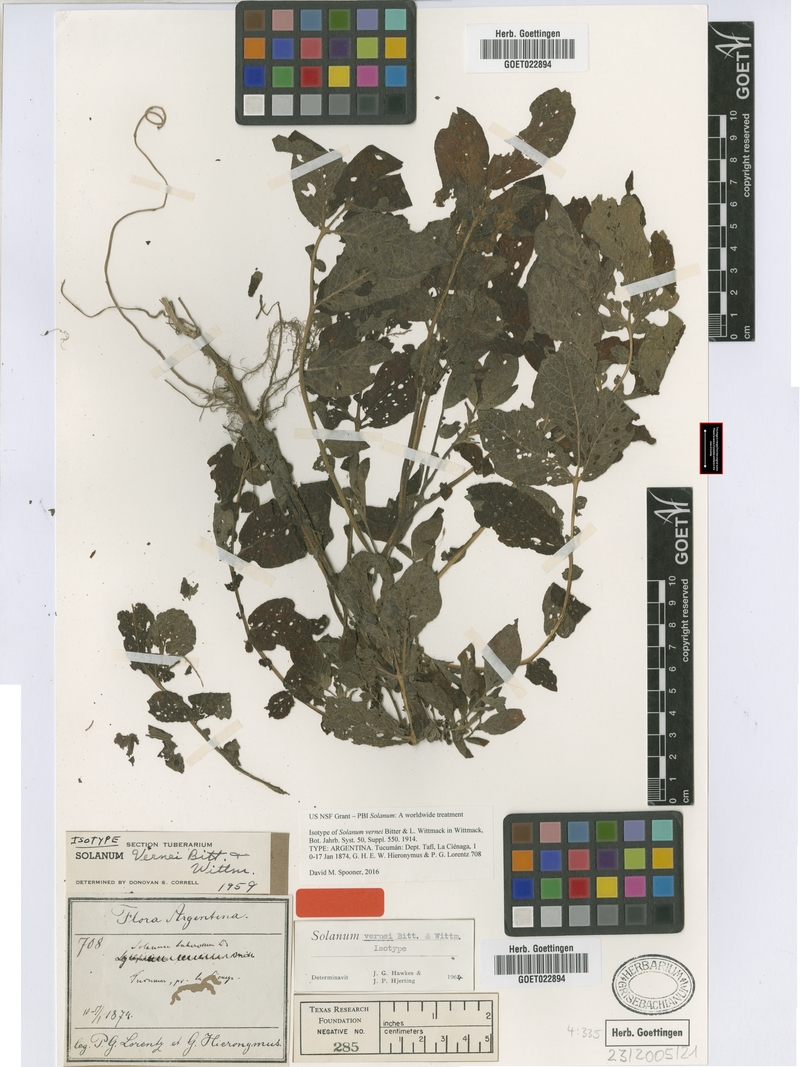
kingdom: Plantae
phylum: Tracheophyta
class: Magnoliopsida
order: Solanales
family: Solanaceae
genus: Solanum
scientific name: Solanum vernei
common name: Purple potato
